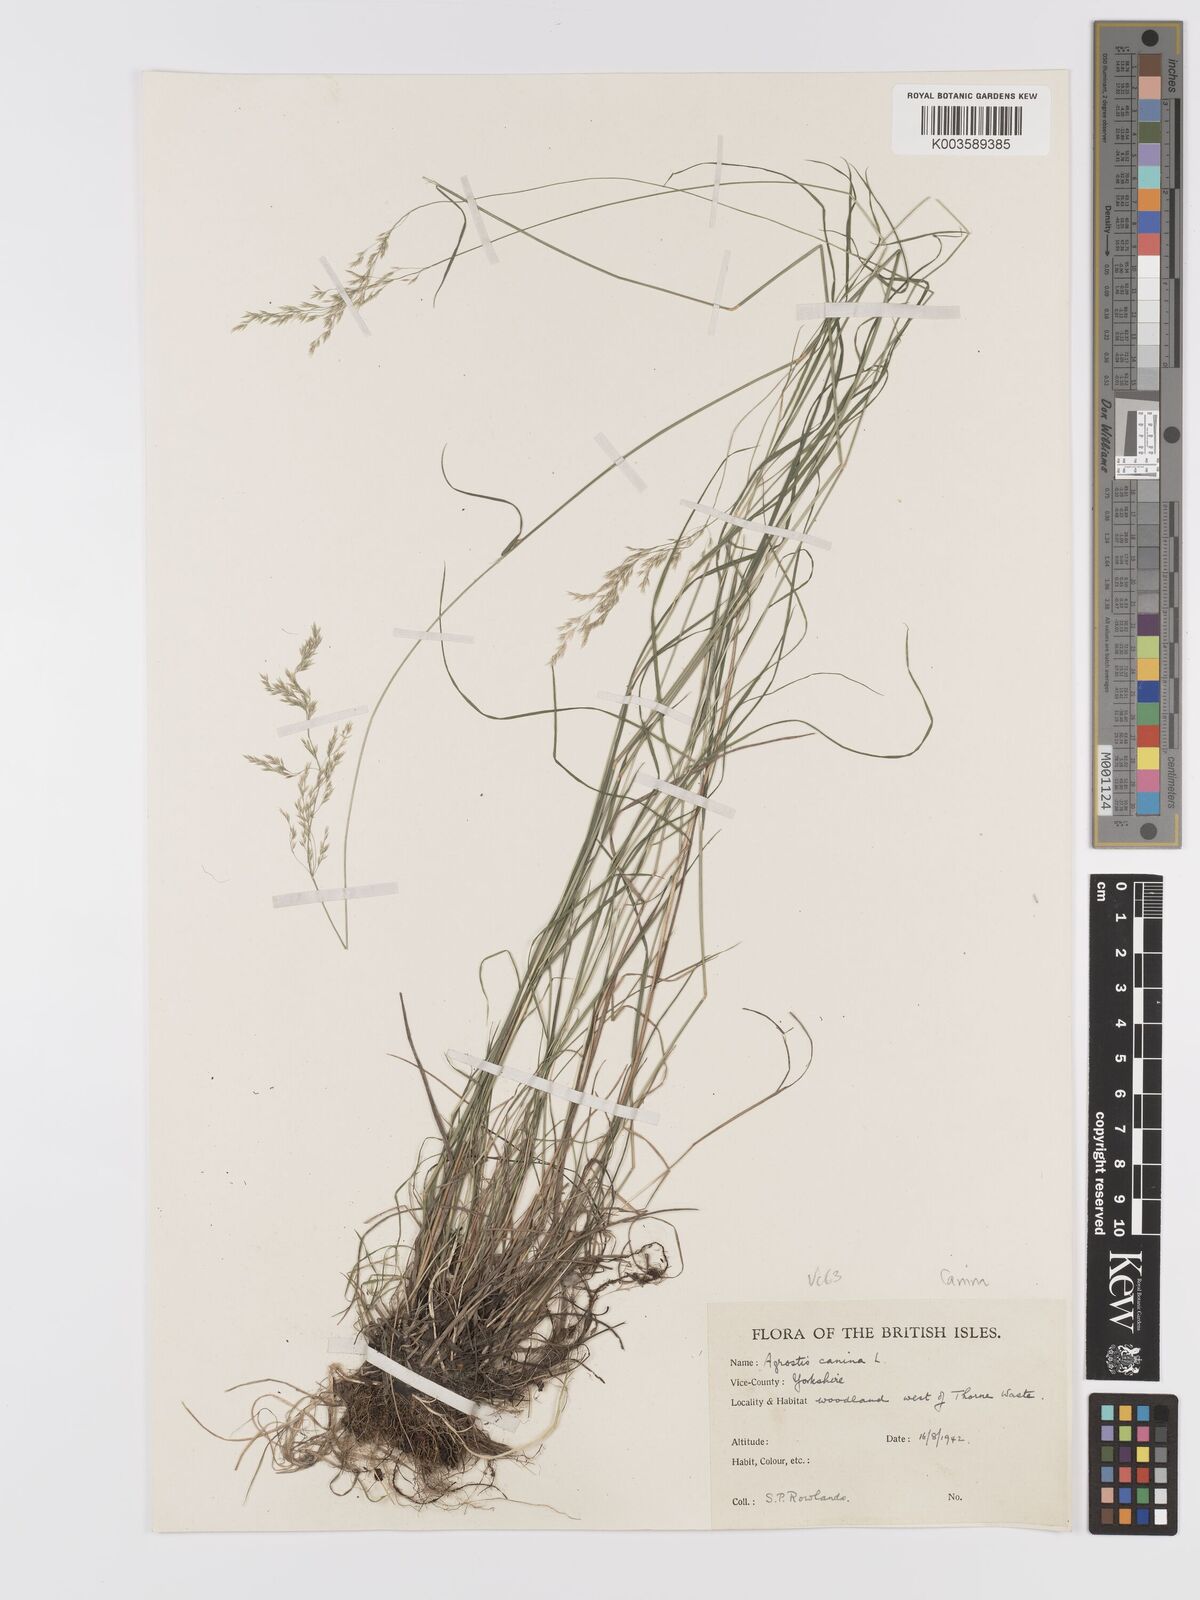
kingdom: Plantae
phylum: Tracheophyta
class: Liliopsida
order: Poales
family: Poaceae
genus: Agrostis
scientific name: Agrostis canina
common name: Velvet bent
